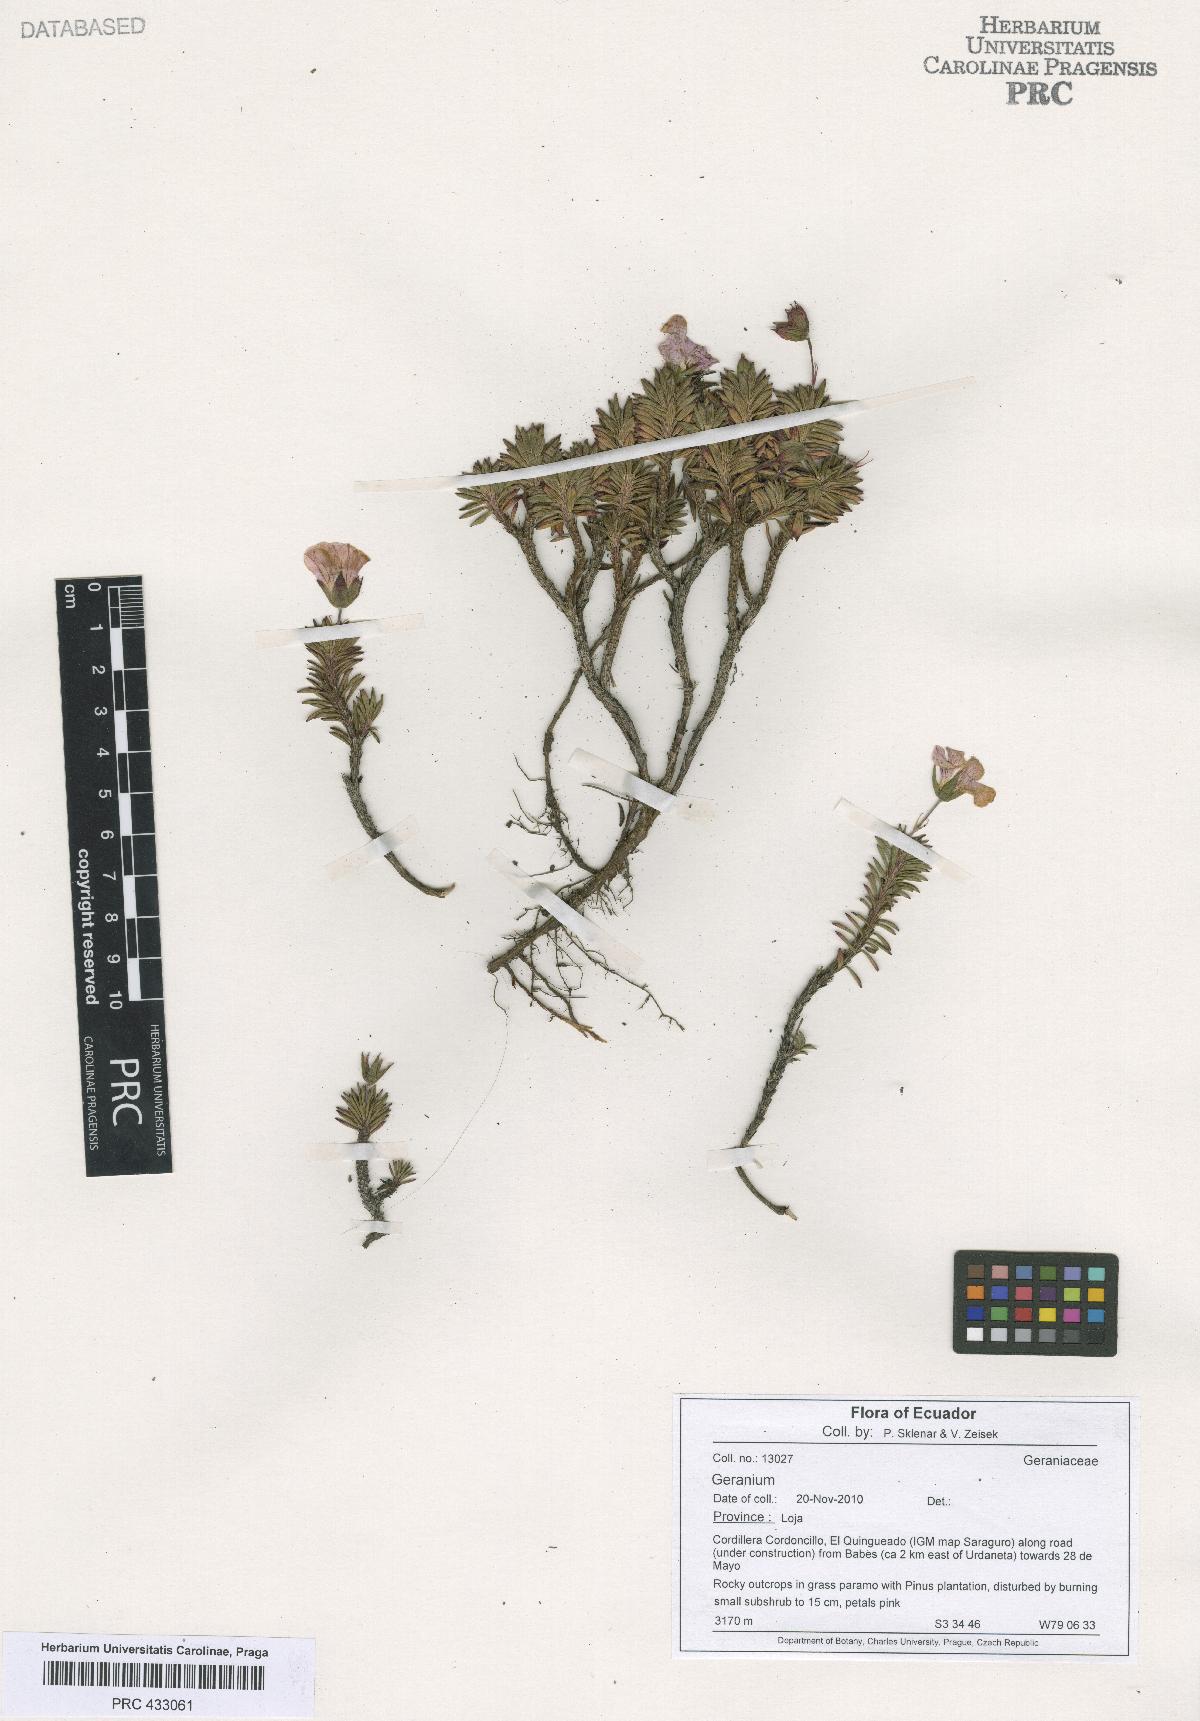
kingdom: Plantae
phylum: Tracheophyta
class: Magnoliopsida
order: Geraniales
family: Geraniaceae
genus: Geranium
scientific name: Geranium exallum
